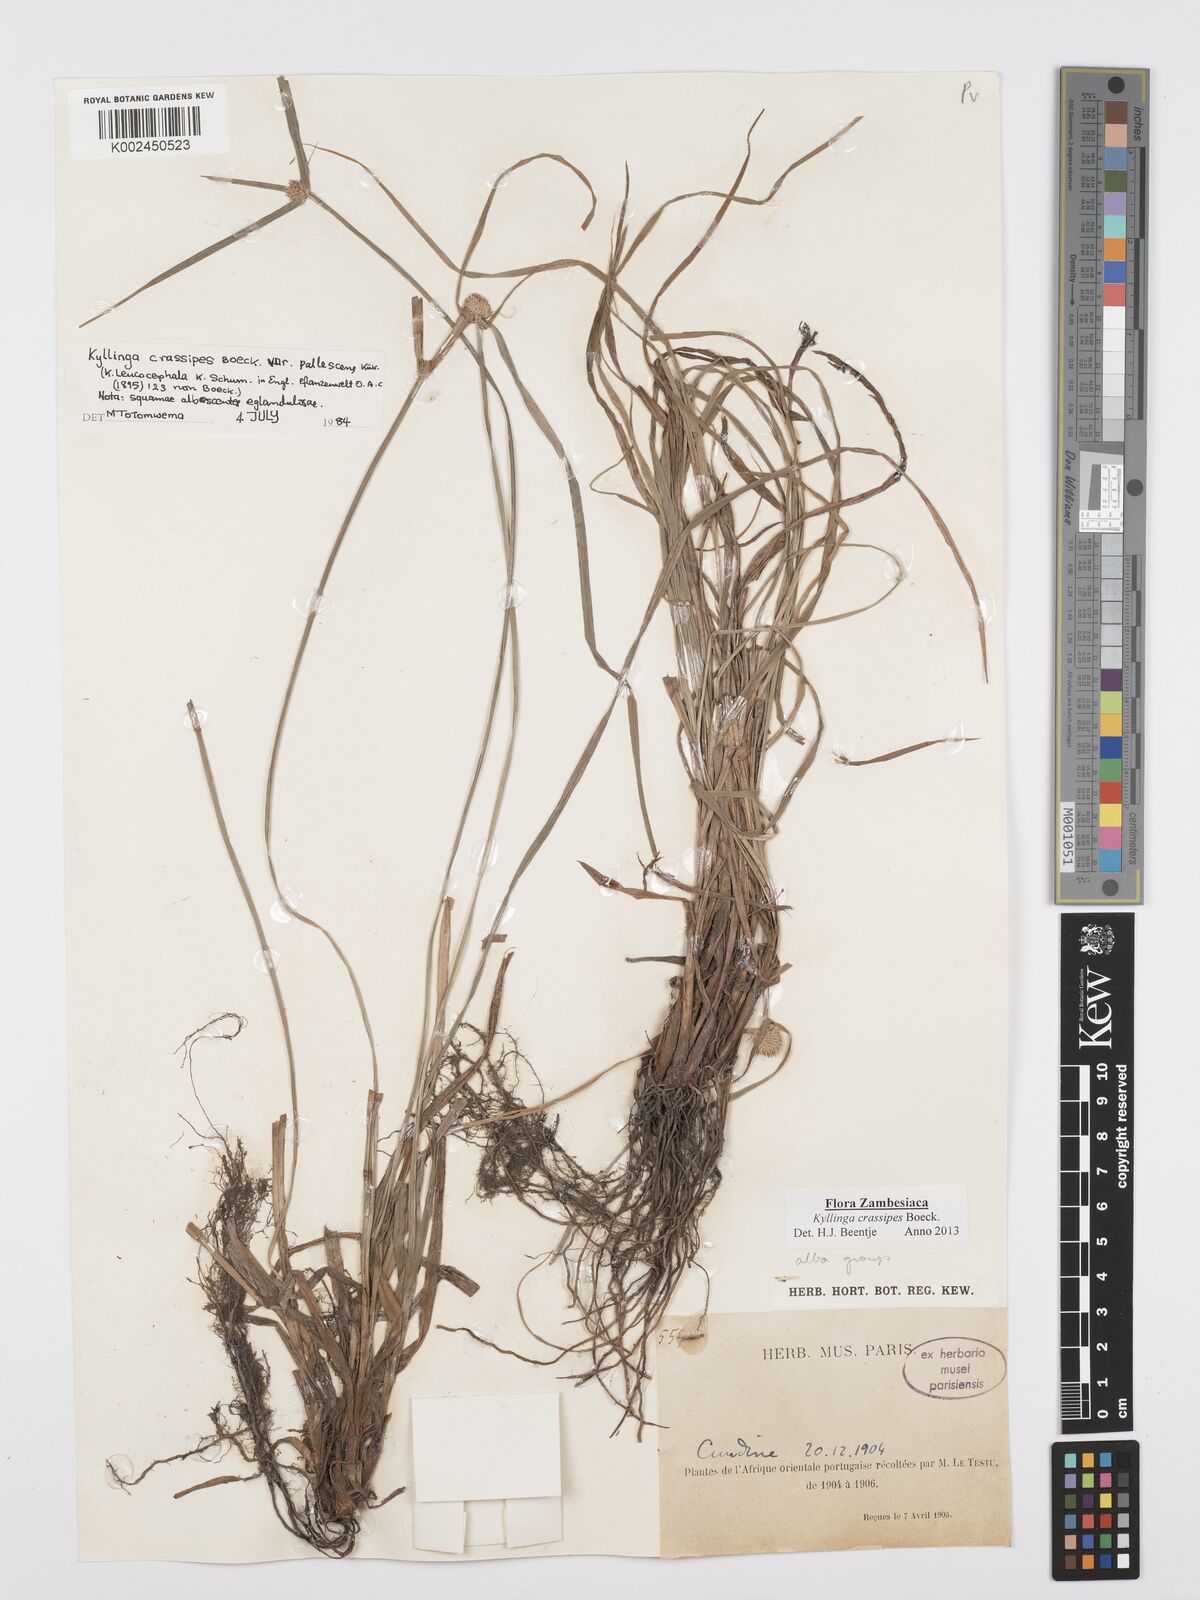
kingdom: Plantae
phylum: Tracheophyta
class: Liliopsida
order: Poales
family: Cyperaceae
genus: Cyperus
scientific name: Cyperus crassipes
